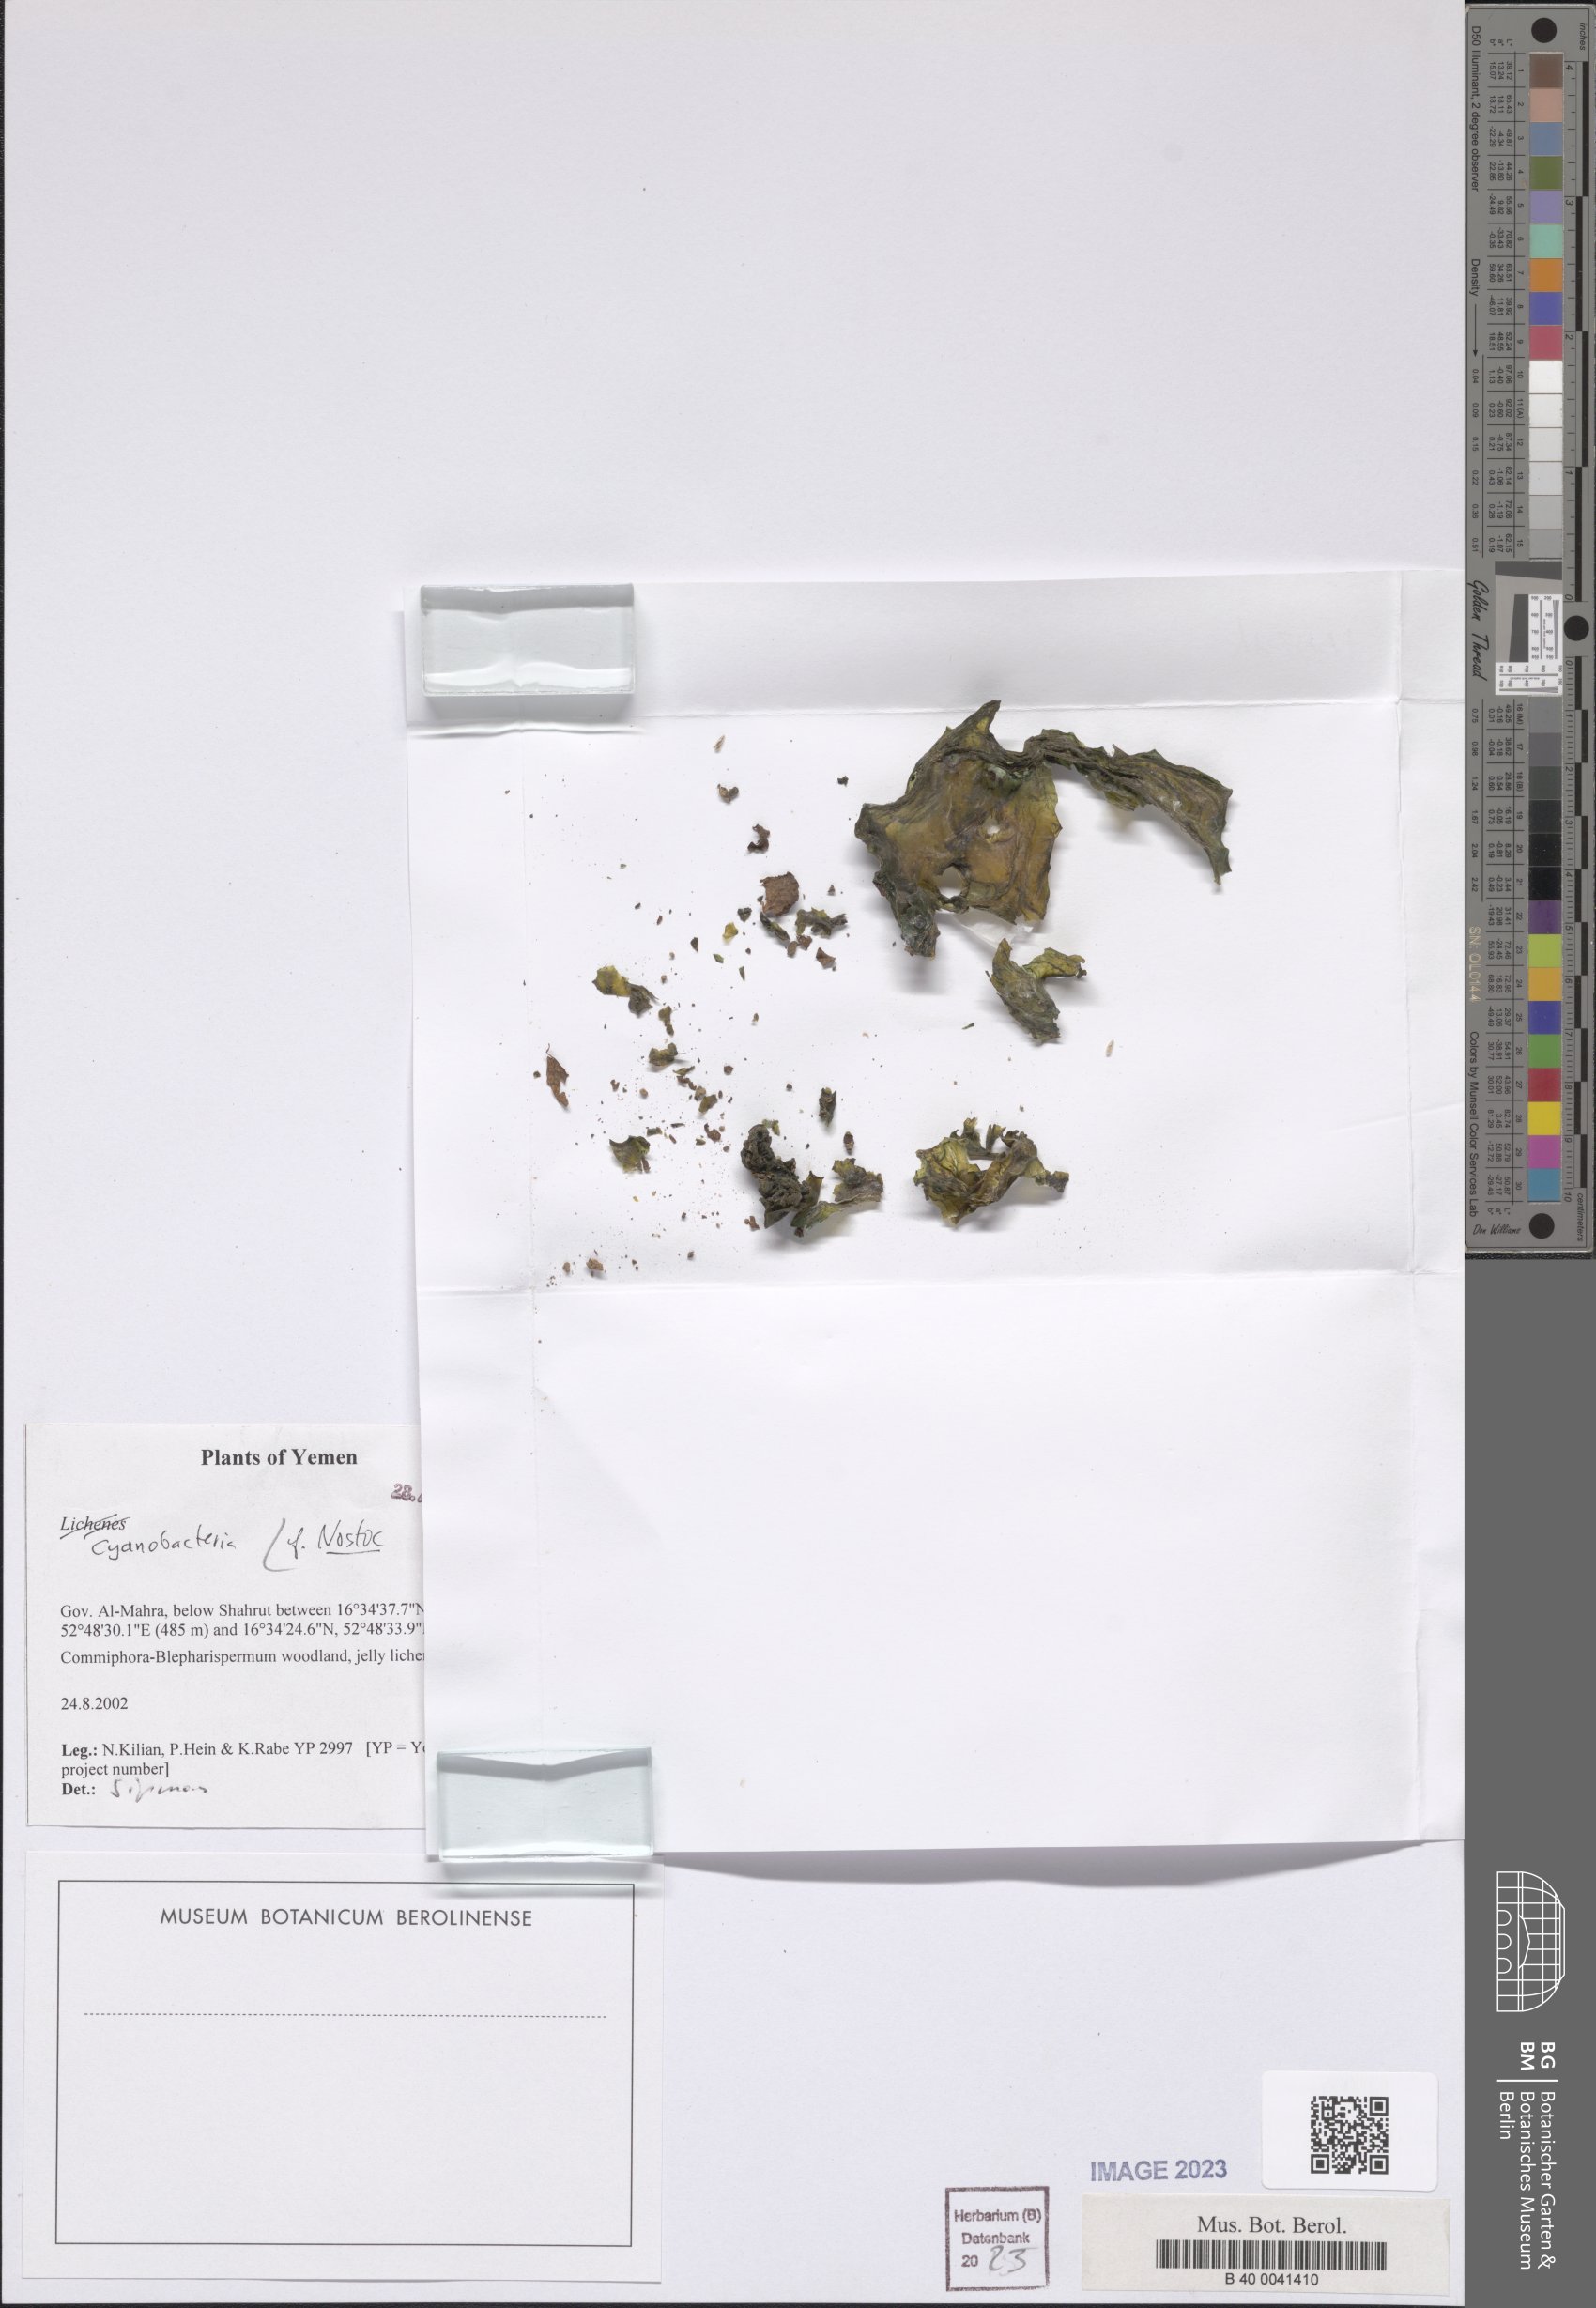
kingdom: Bacteria
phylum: Cyanobacteria
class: Cyanobacteriia
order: Cyanobacteriales
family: Nostocaceae
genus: Nostoc
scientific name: Nostoc
